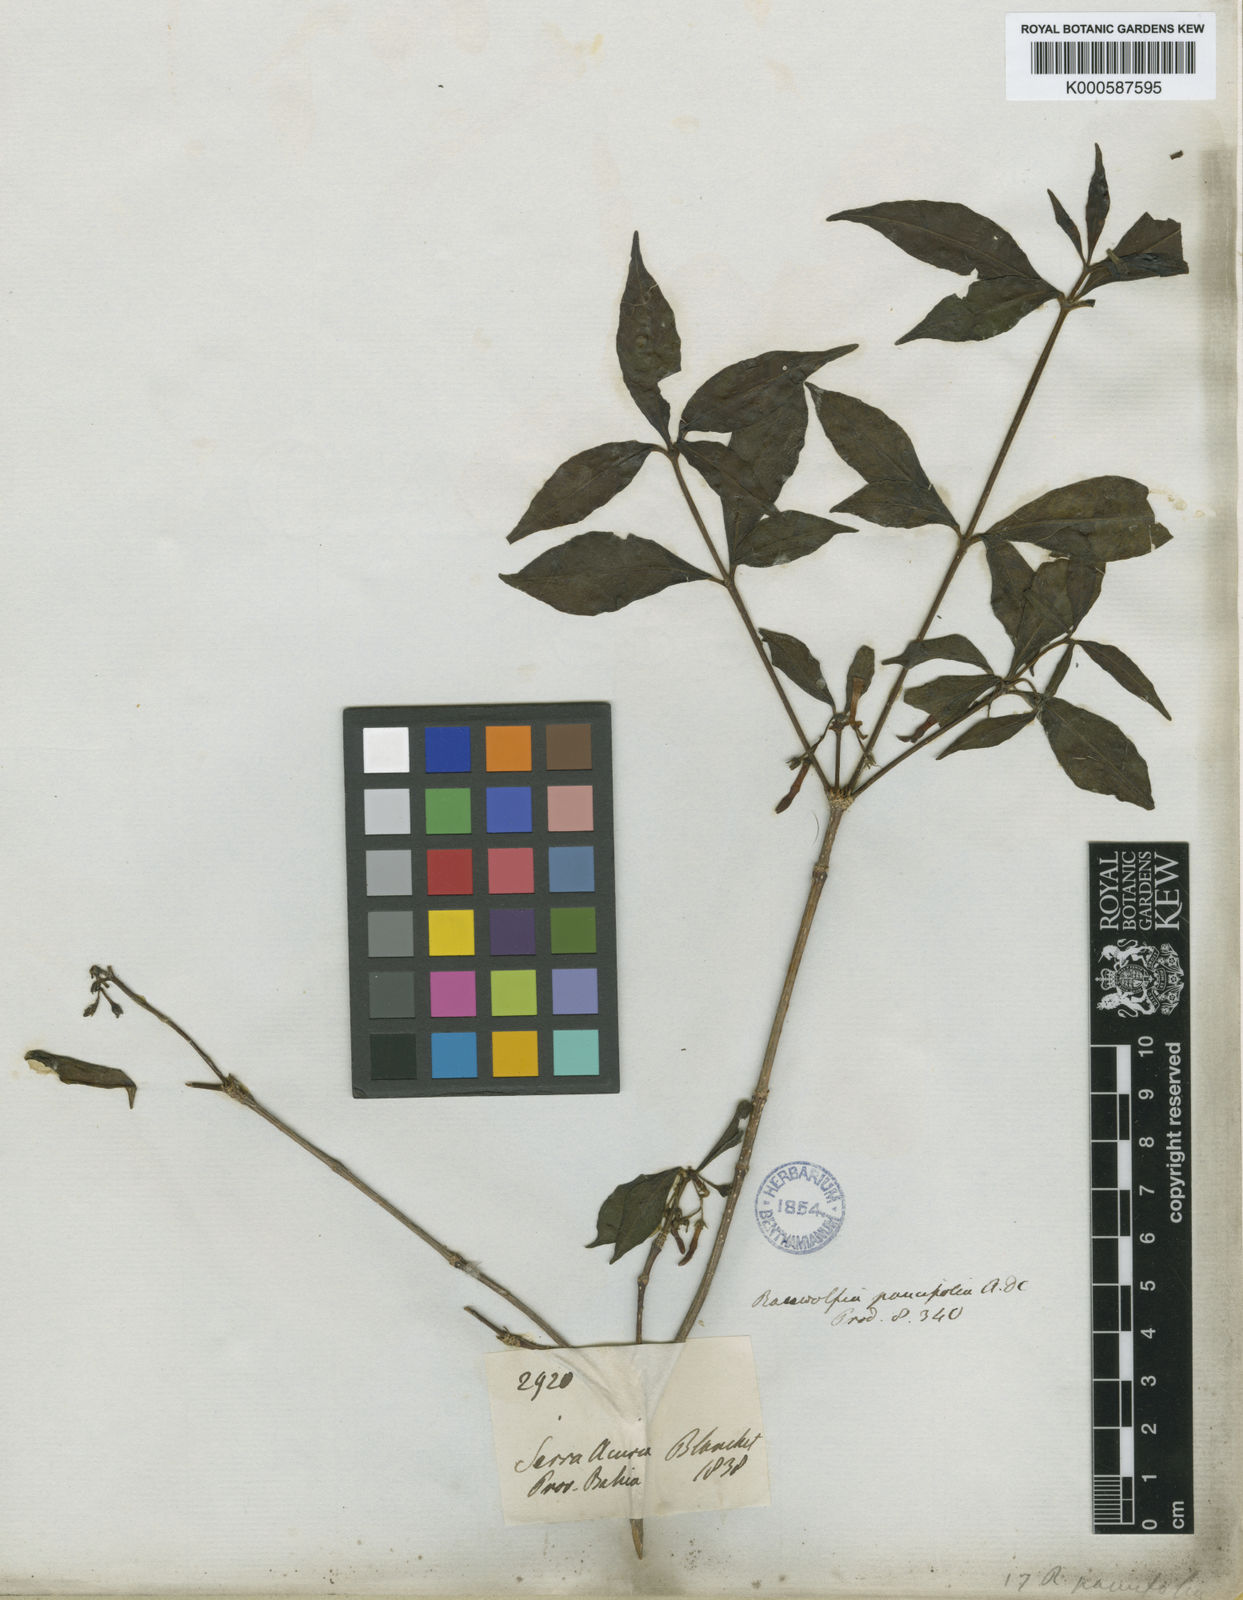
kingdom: Plantae
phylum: Tracheophyta
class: Magnoliopsida
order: Gentianales
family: Apocynaceae
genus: Rauvolfia
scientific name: Rauvolfia paucifolia
